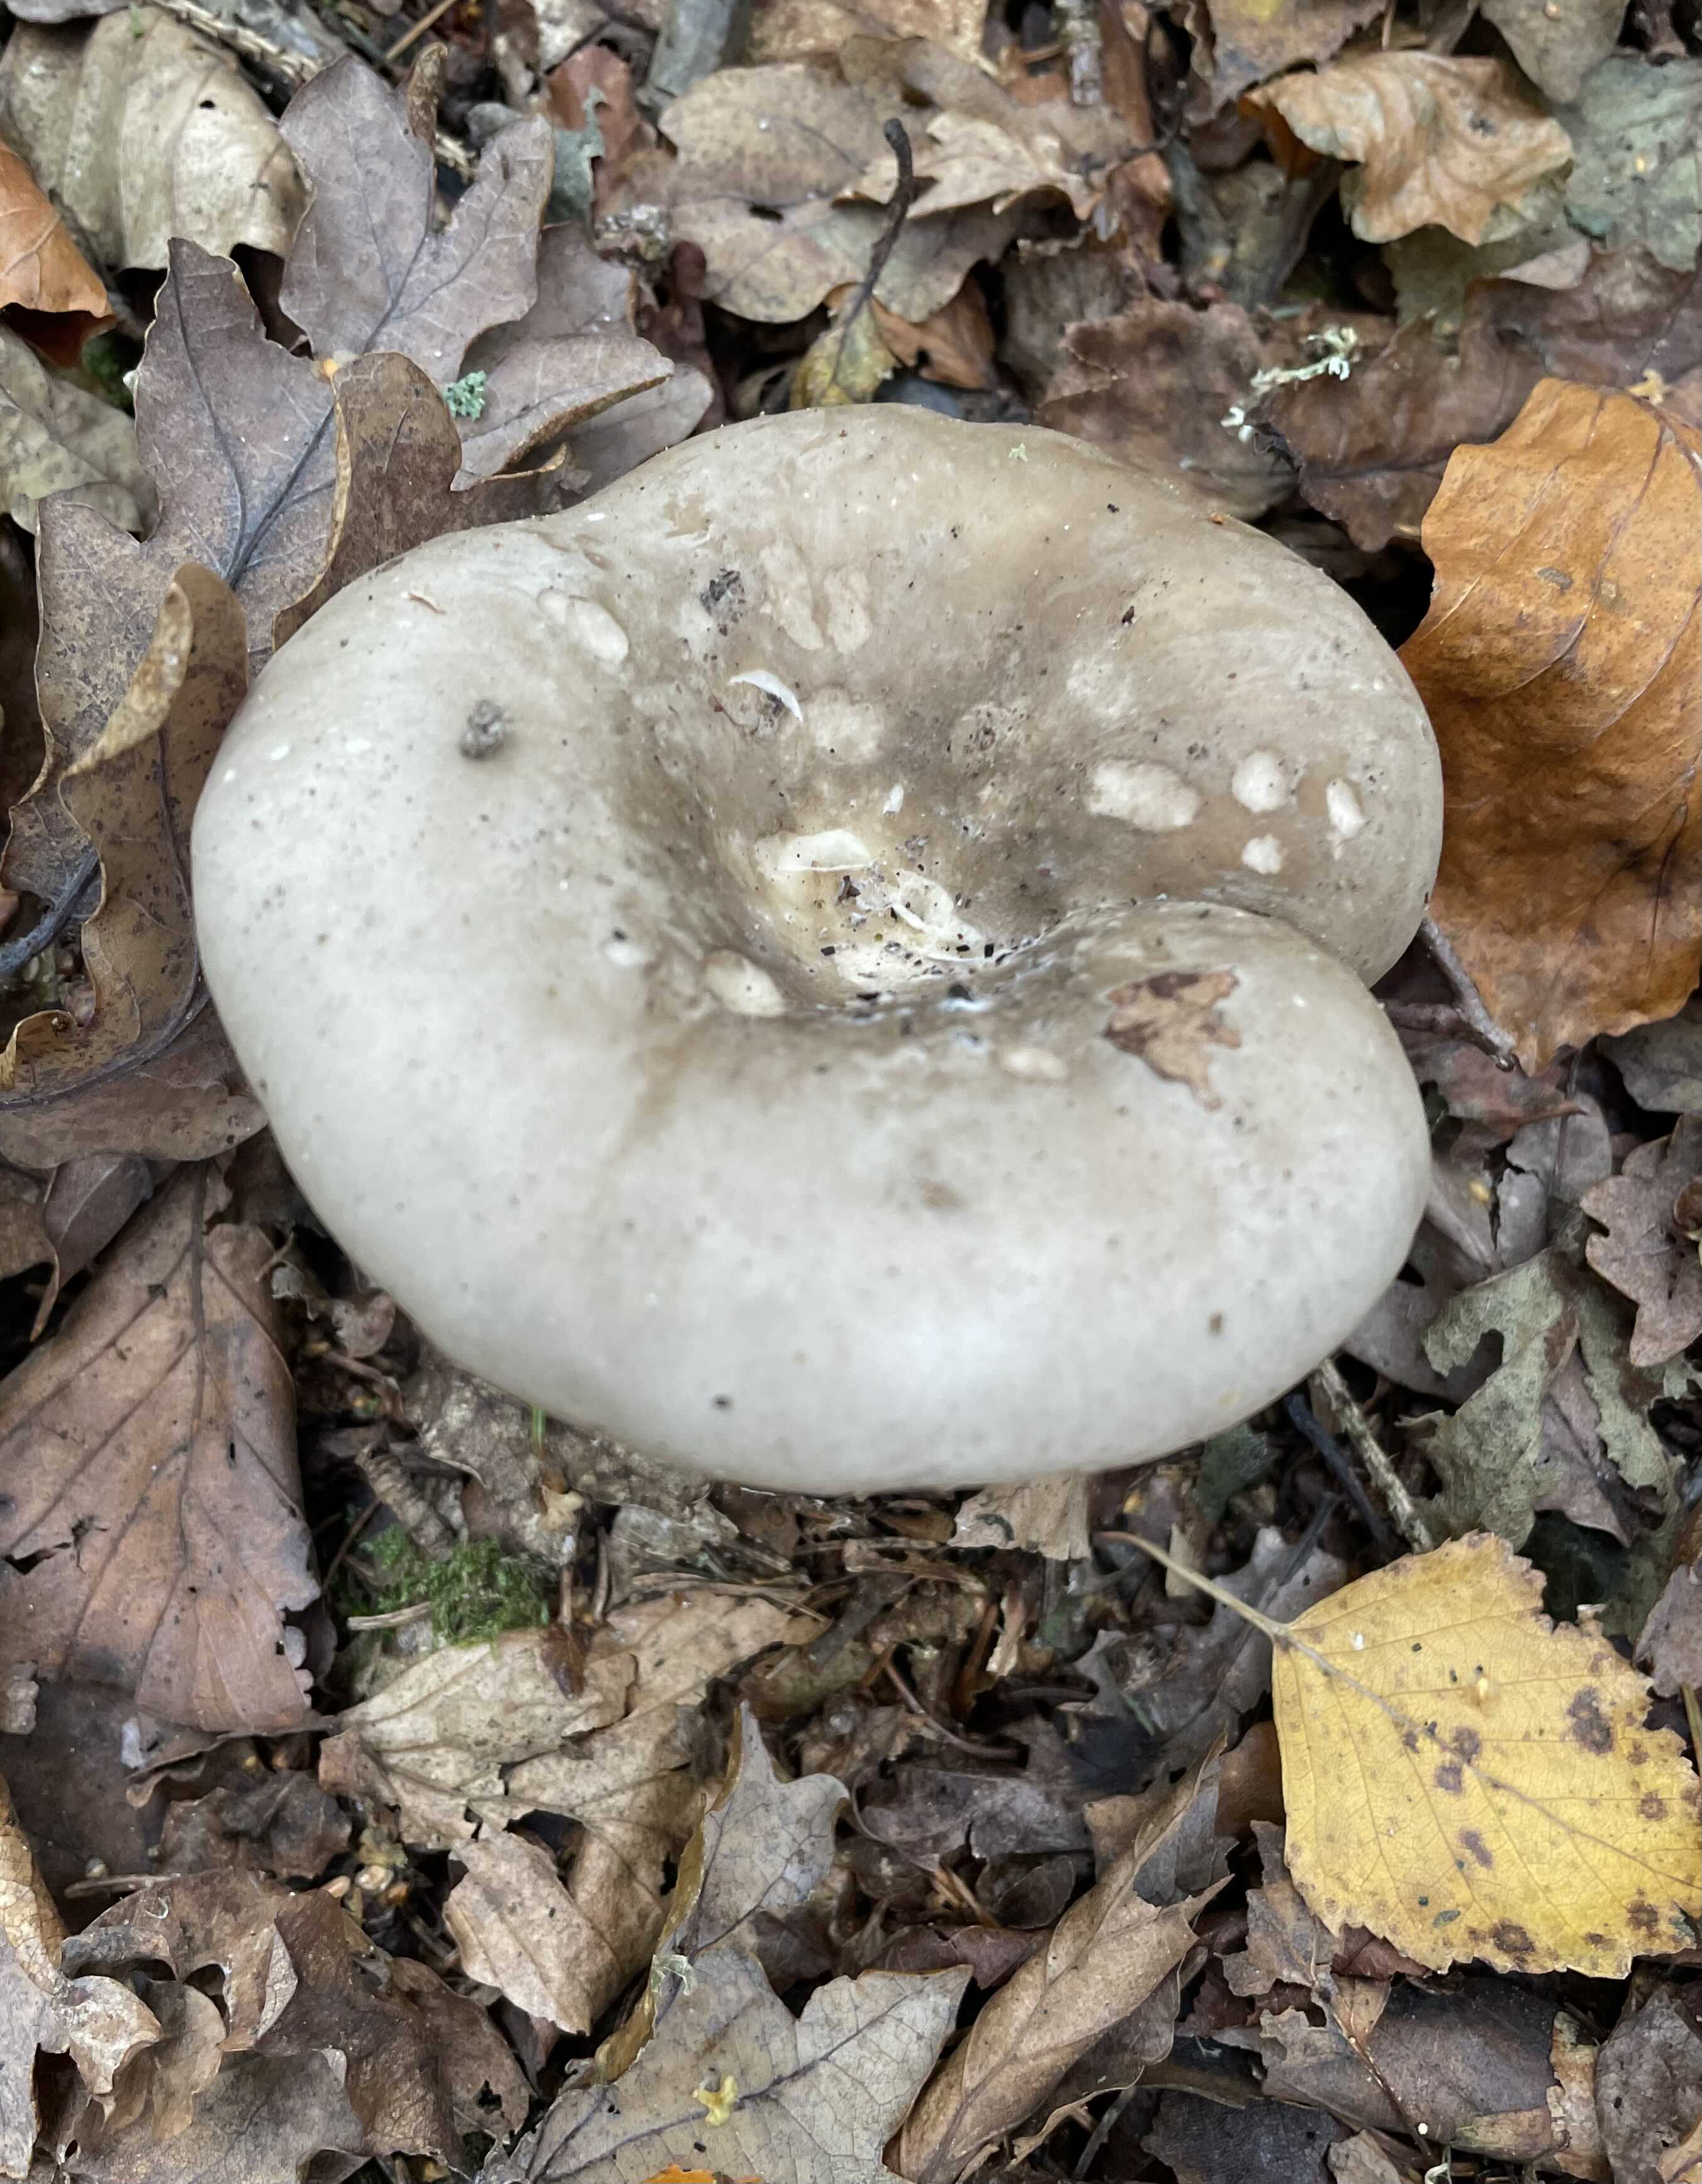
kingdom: Fungi
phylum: Basidiomycota
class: Agaricomycetes
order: Agaricales
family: Tricholomataceae
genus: Clitocybe
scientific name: Clitocybe nebularis
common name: tåge-tragthat
